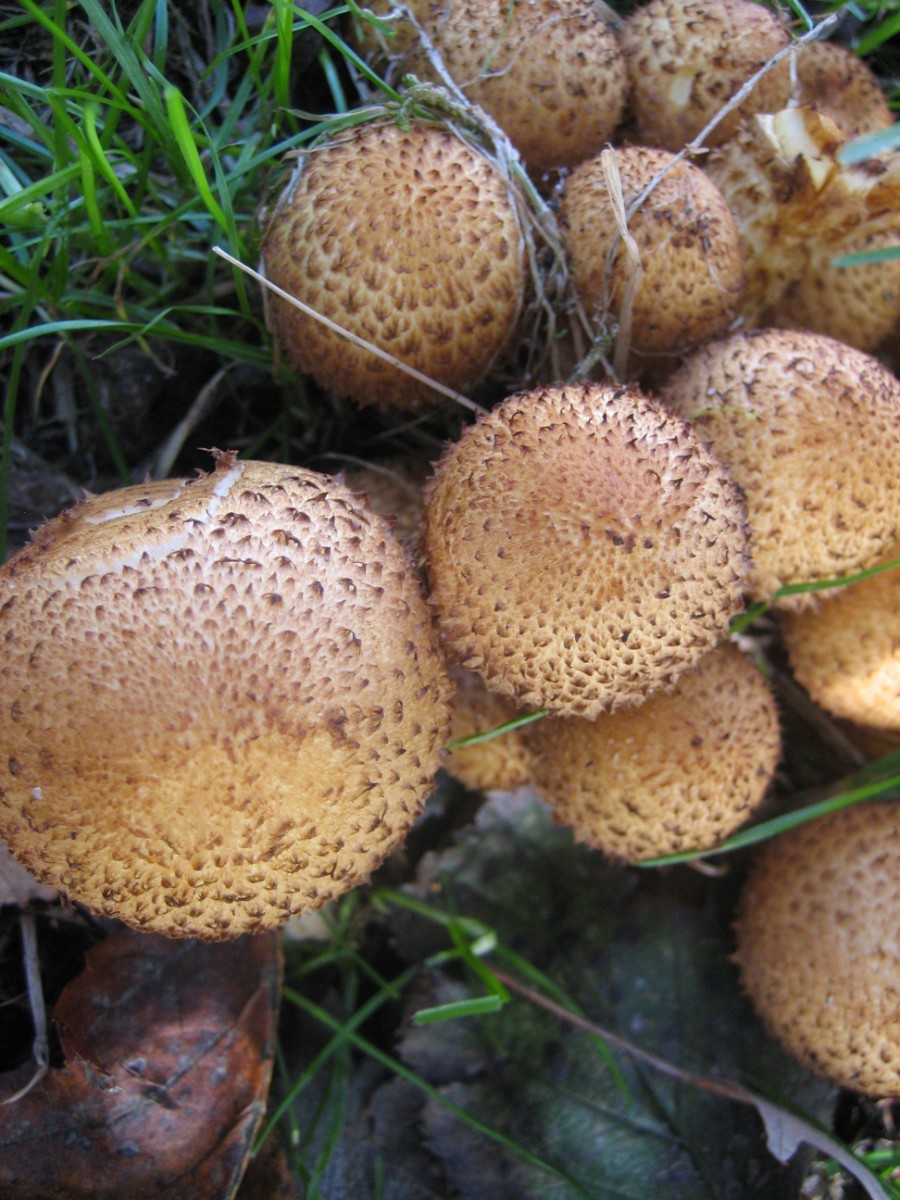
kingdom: Fungi
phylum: Basidiomycota
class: Agaricomycetes
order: Agaricales
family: Strophariaceae
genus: Pholiota
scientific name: Pholiota squarrosa
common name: krumskællet skælhat
